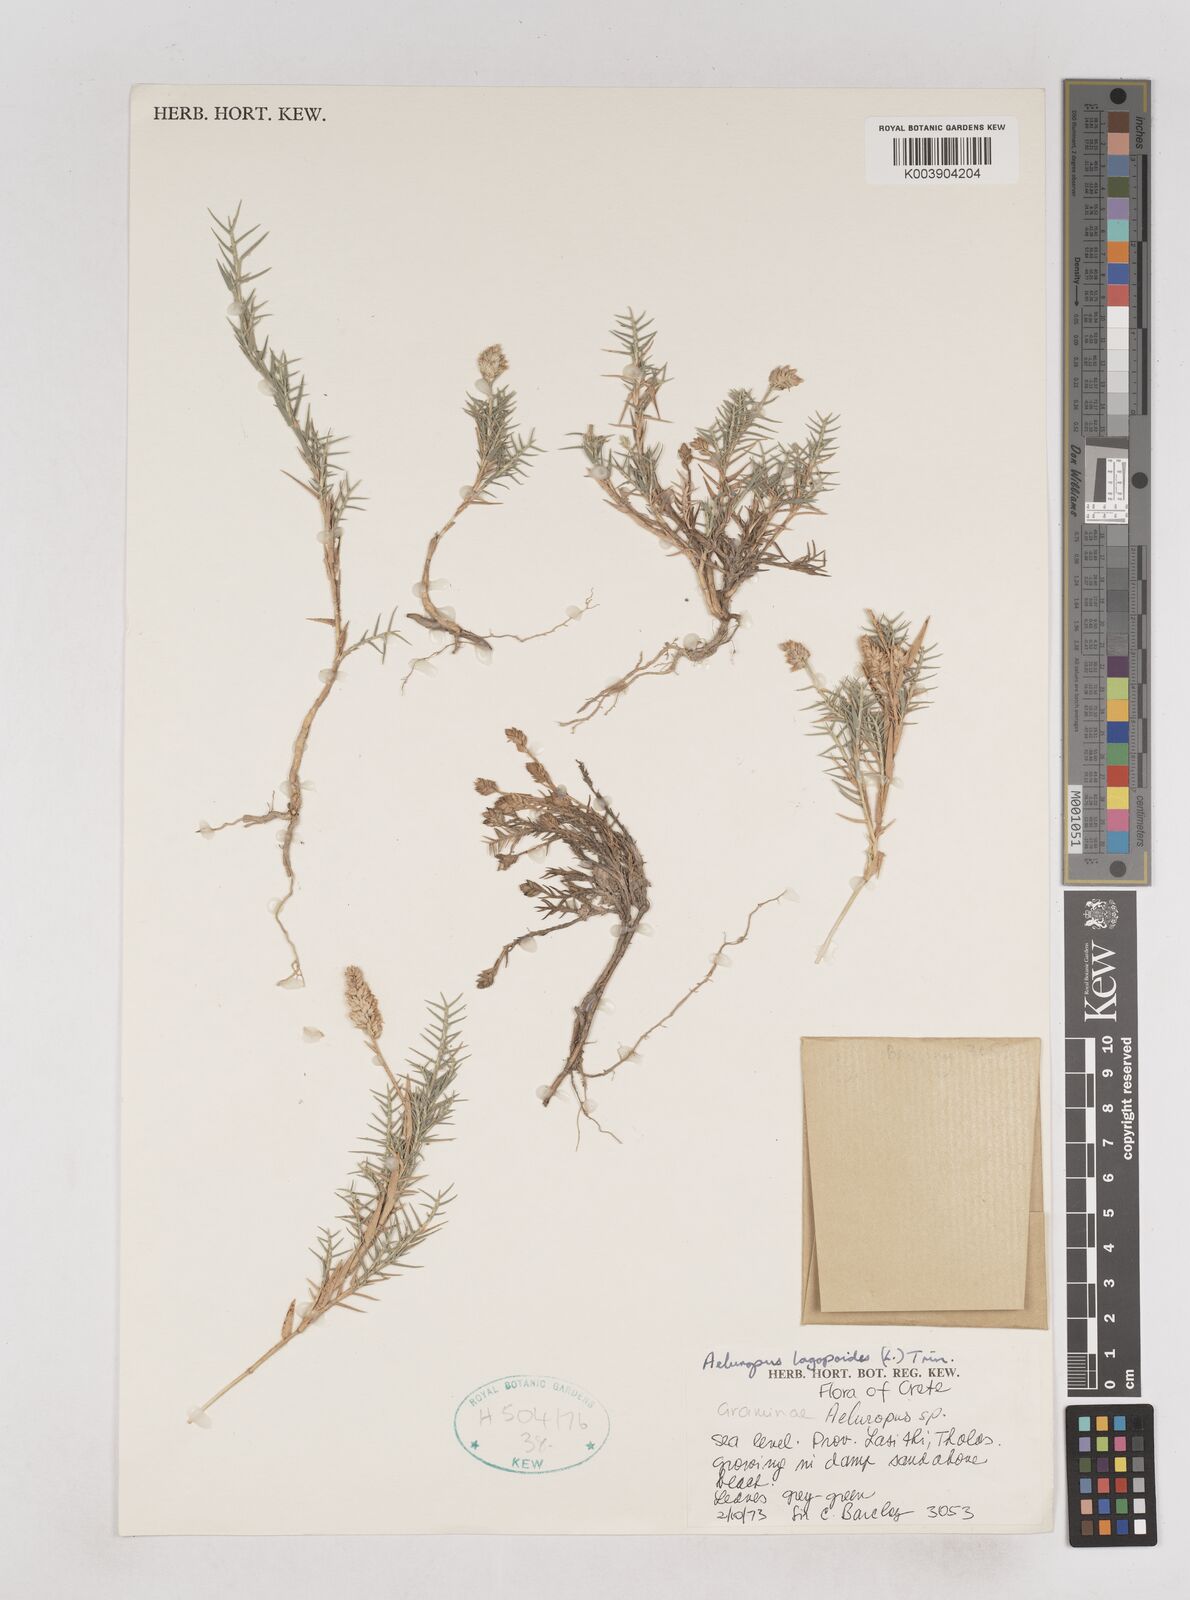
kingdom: Plantae
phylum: Tracheophyta
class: Liliopsida
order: Poales
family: Poaceae
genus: Aeluropus
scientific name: Aeluropus lagopoides
